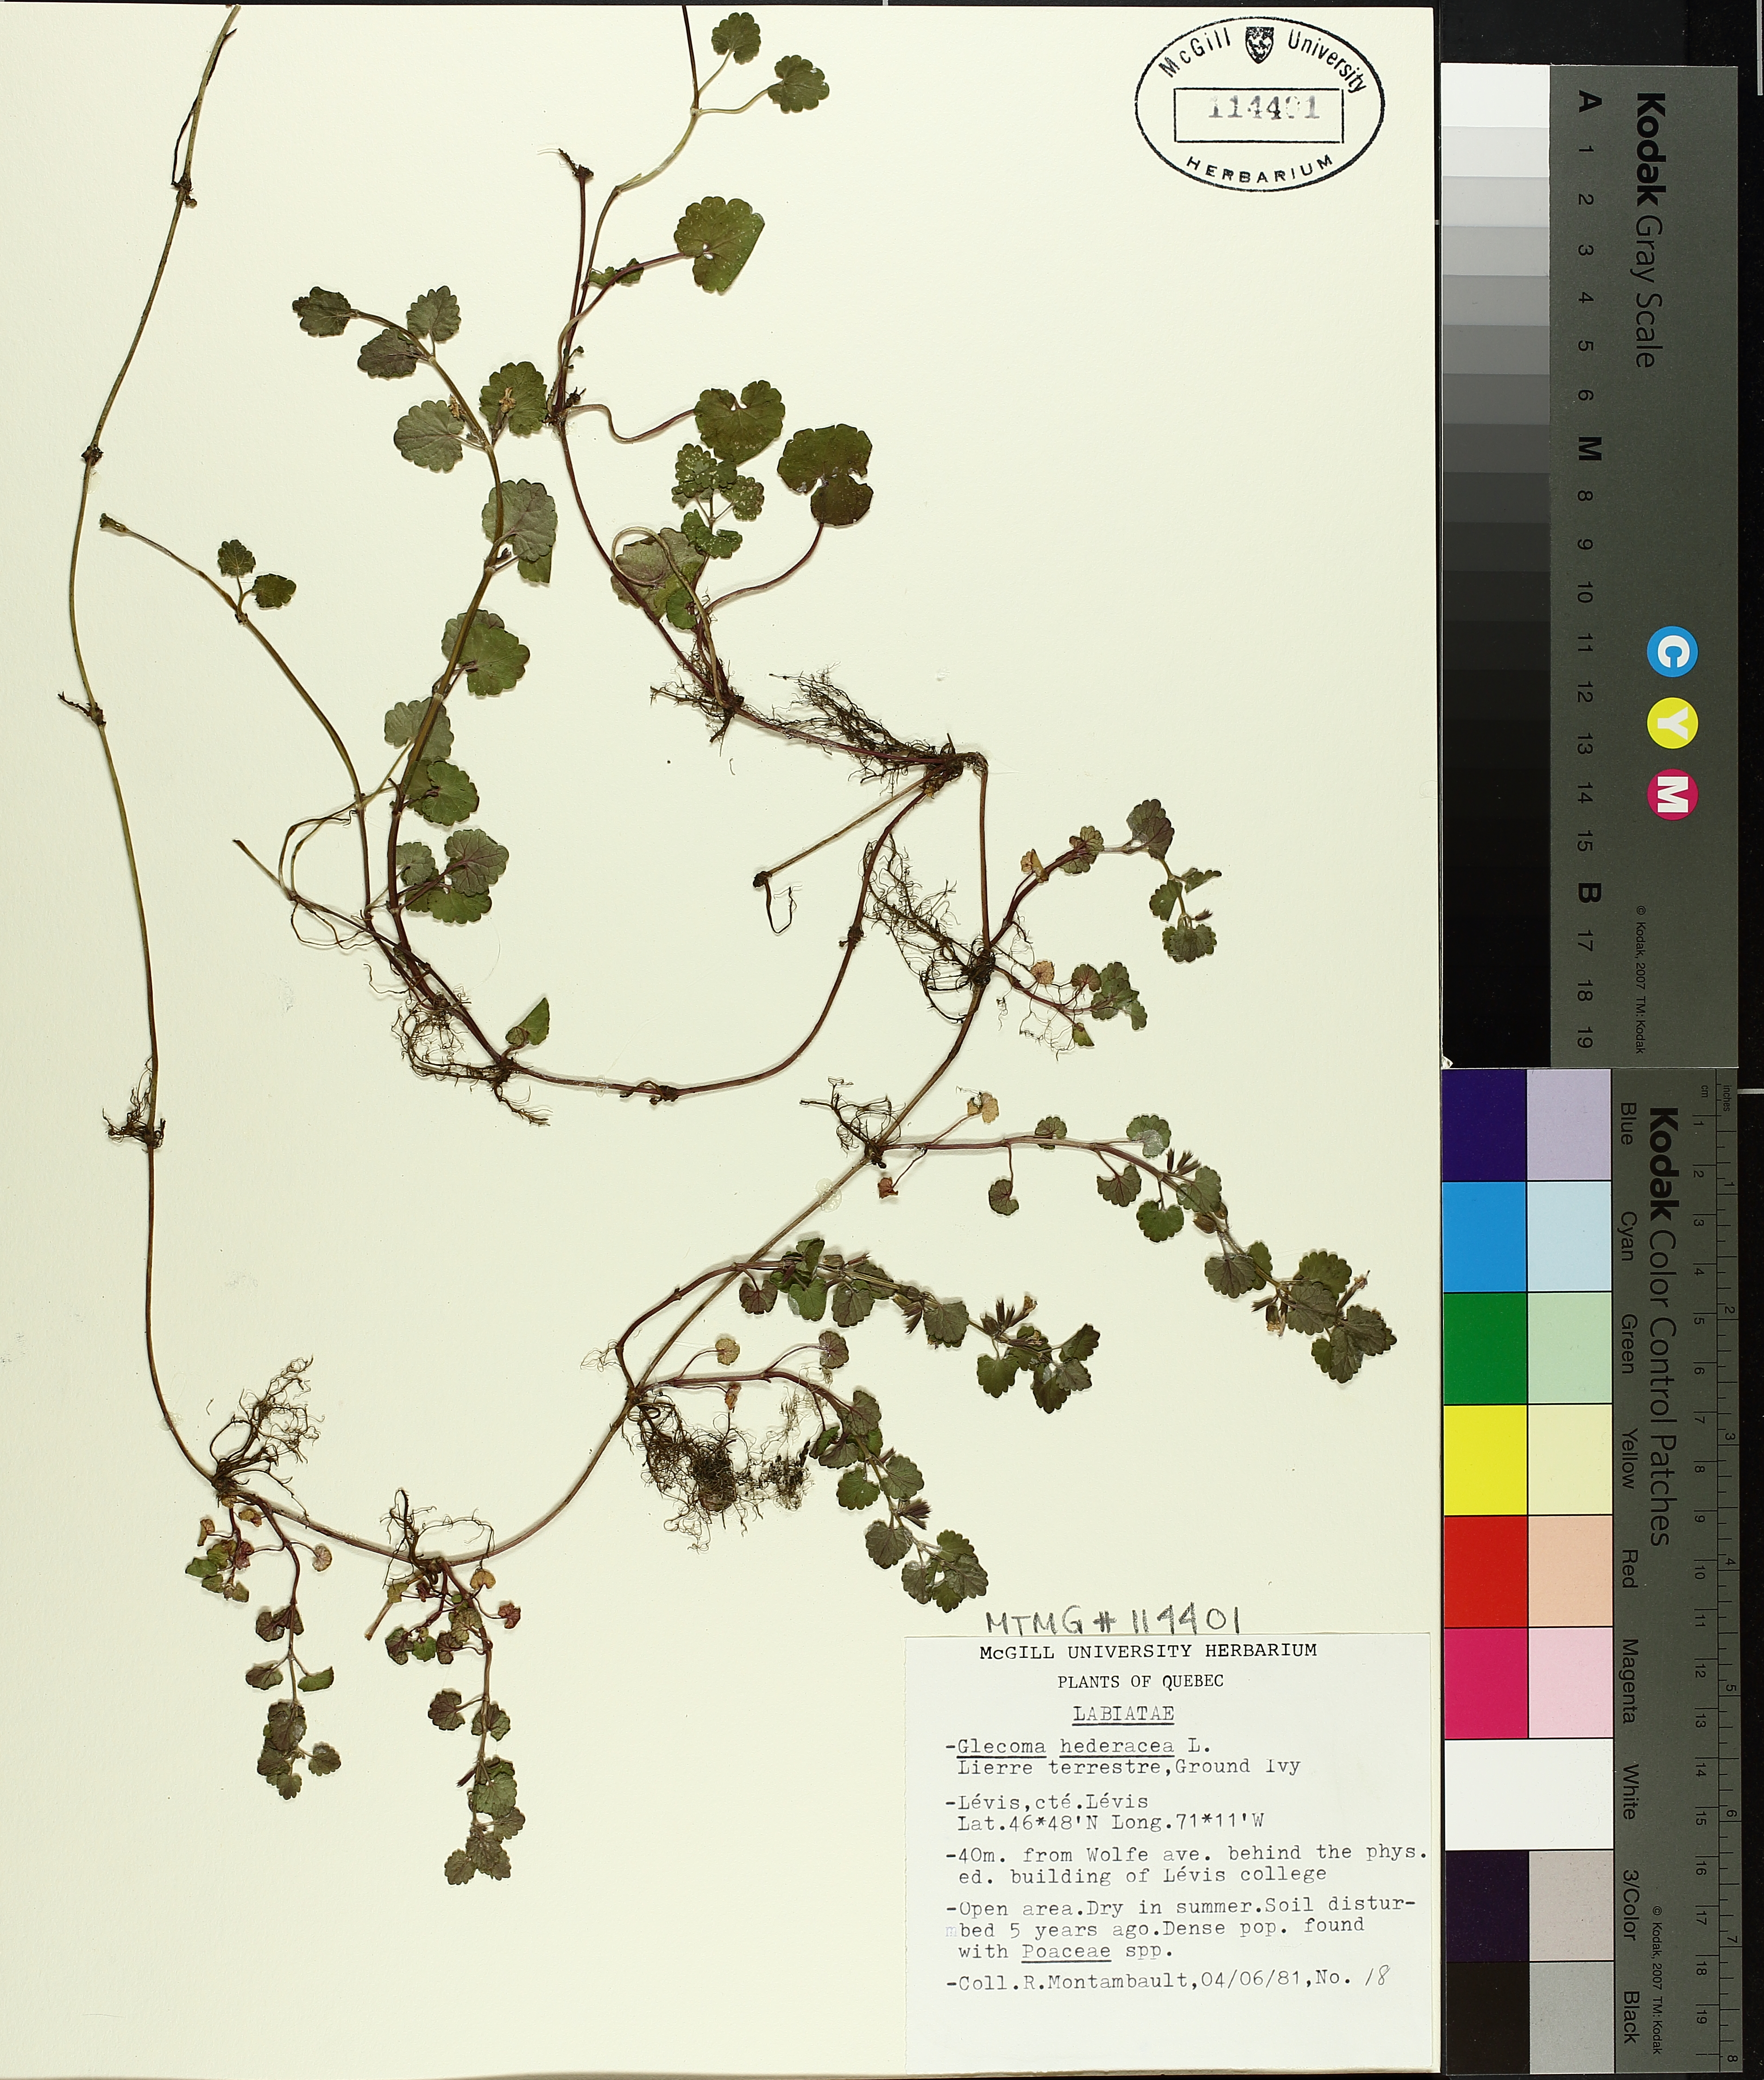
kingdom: Plantae
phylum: Tracheophyta
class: Magnoliopsida
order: Lamiales
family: Lamiaceae
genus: Glechoma
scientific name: Glechoma hederacea
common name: Ground ivy
